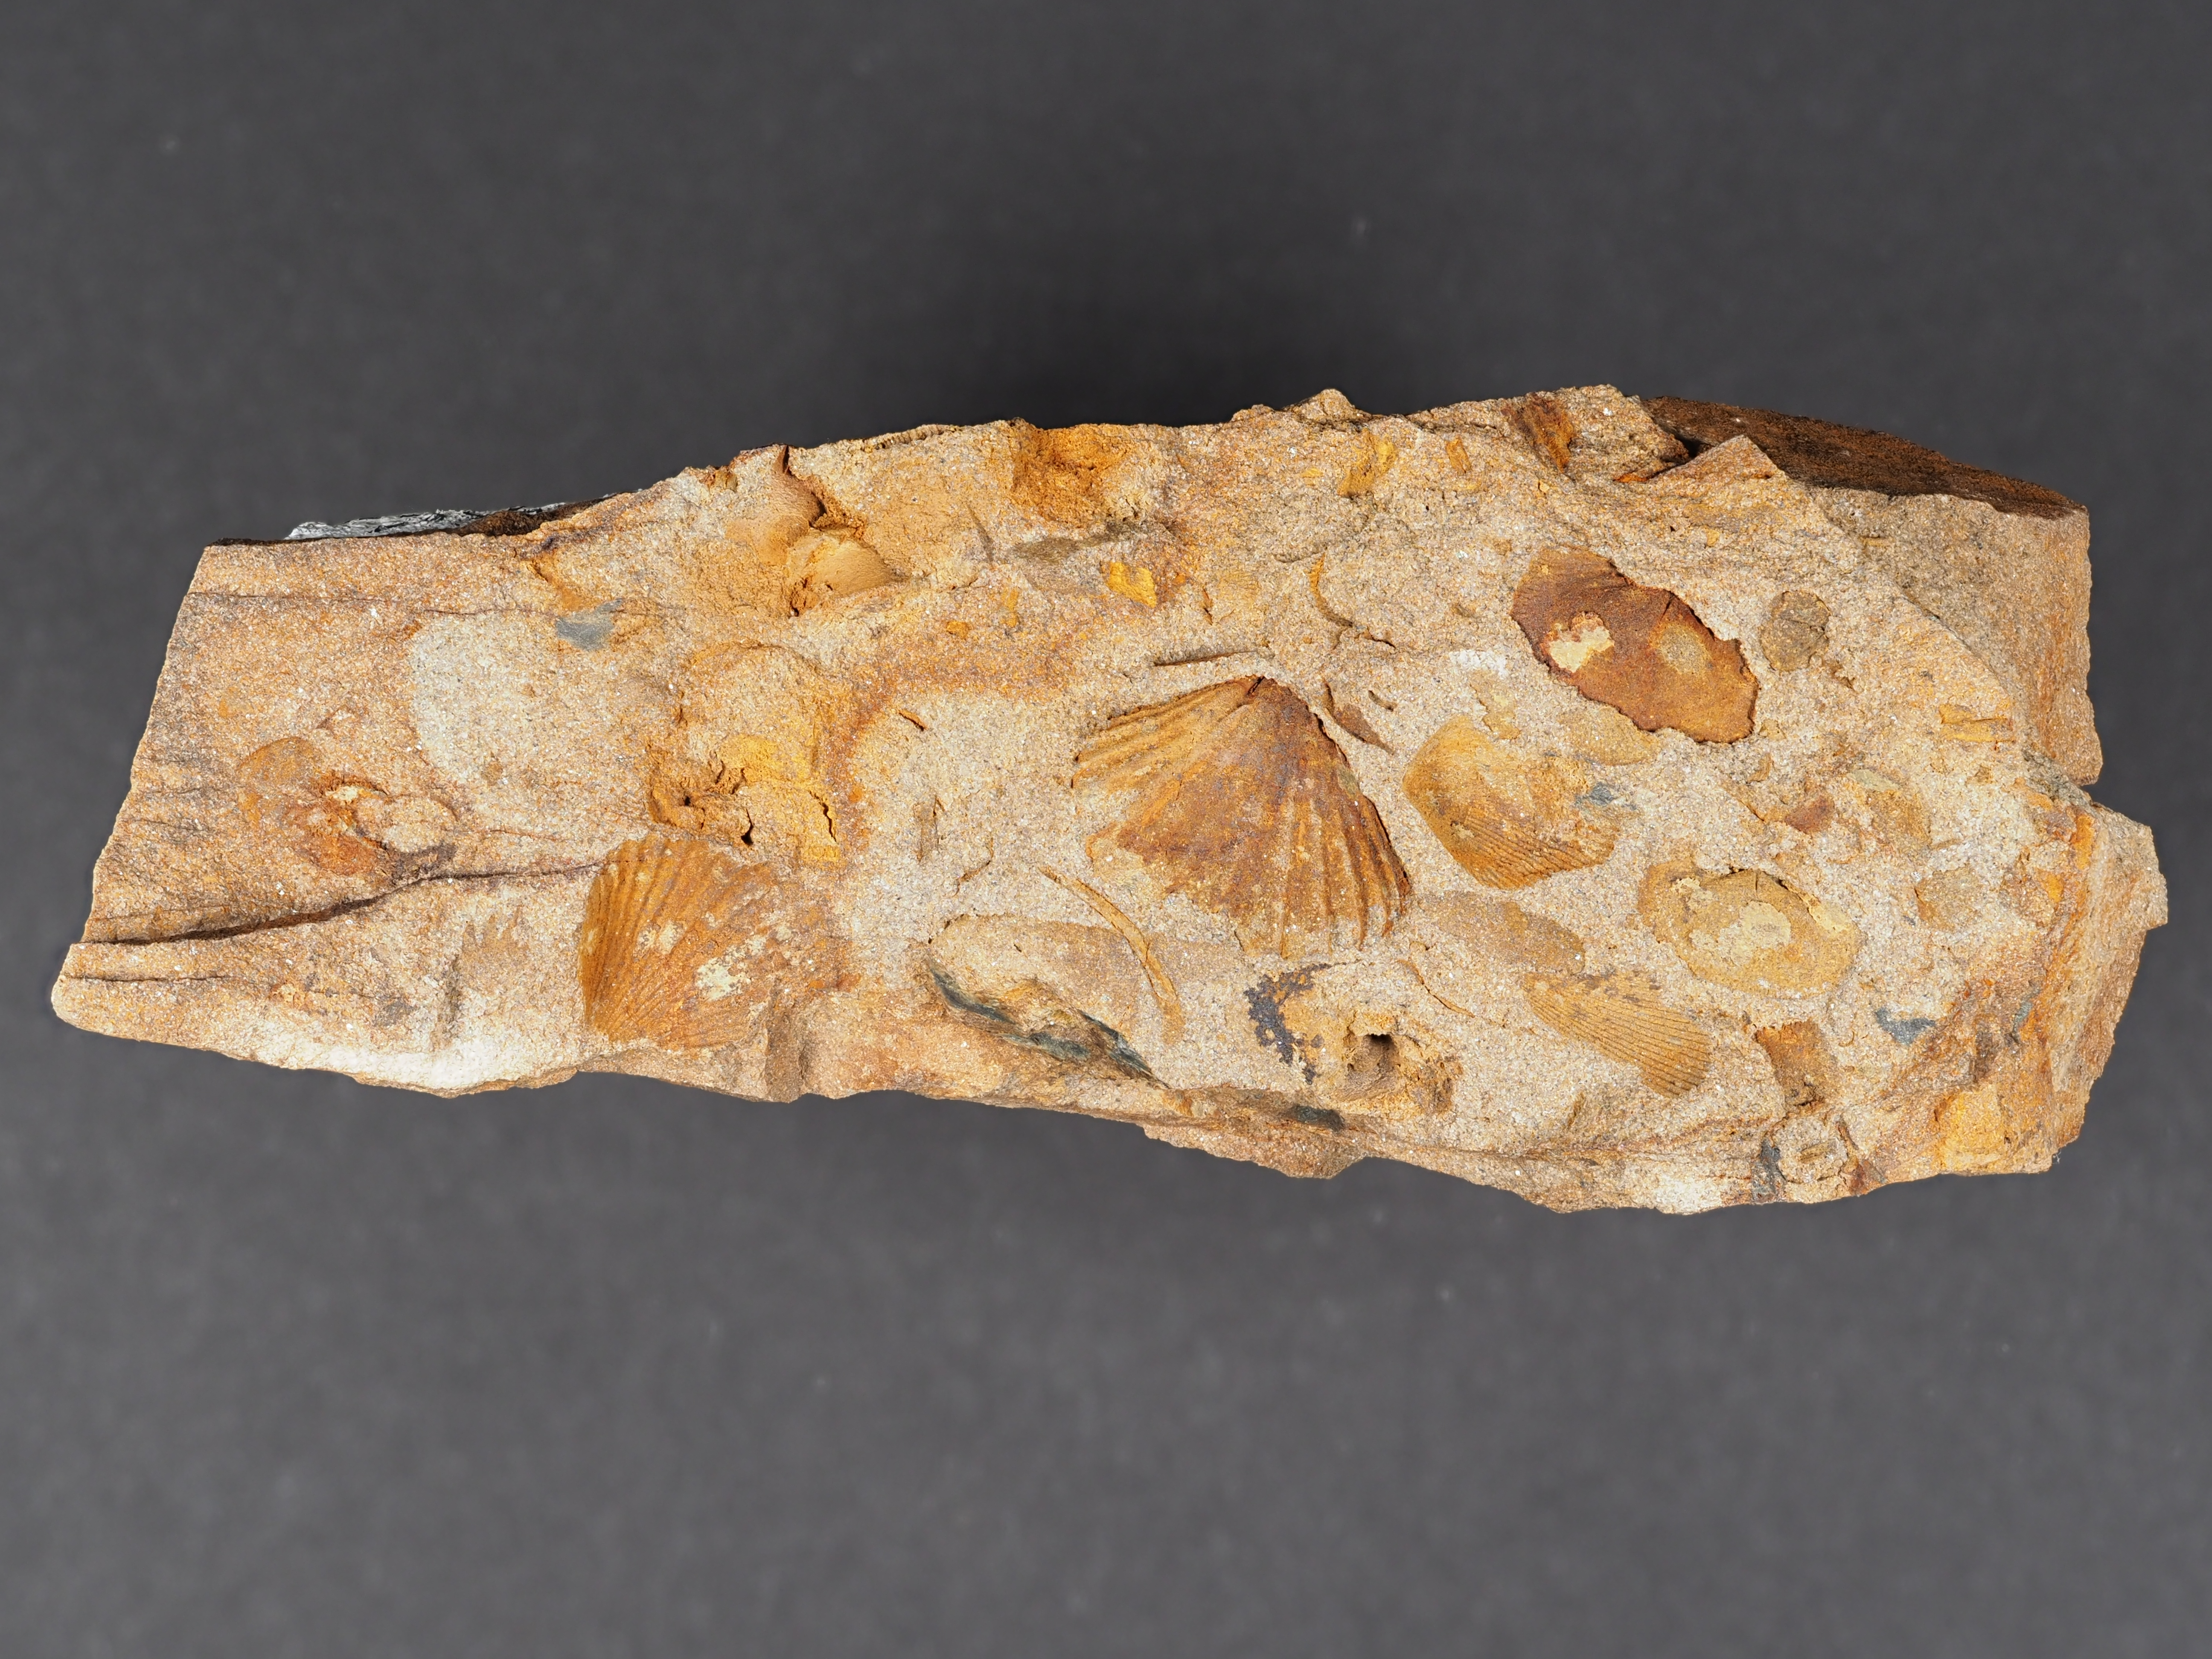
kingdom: Animalia
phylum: Brachiopoda
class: Rhynchonellata
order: Rhynchonellida
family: Trigonirhynchiidae
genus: Oligoptycherhynchus
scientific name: Oligoptycherhynchus
